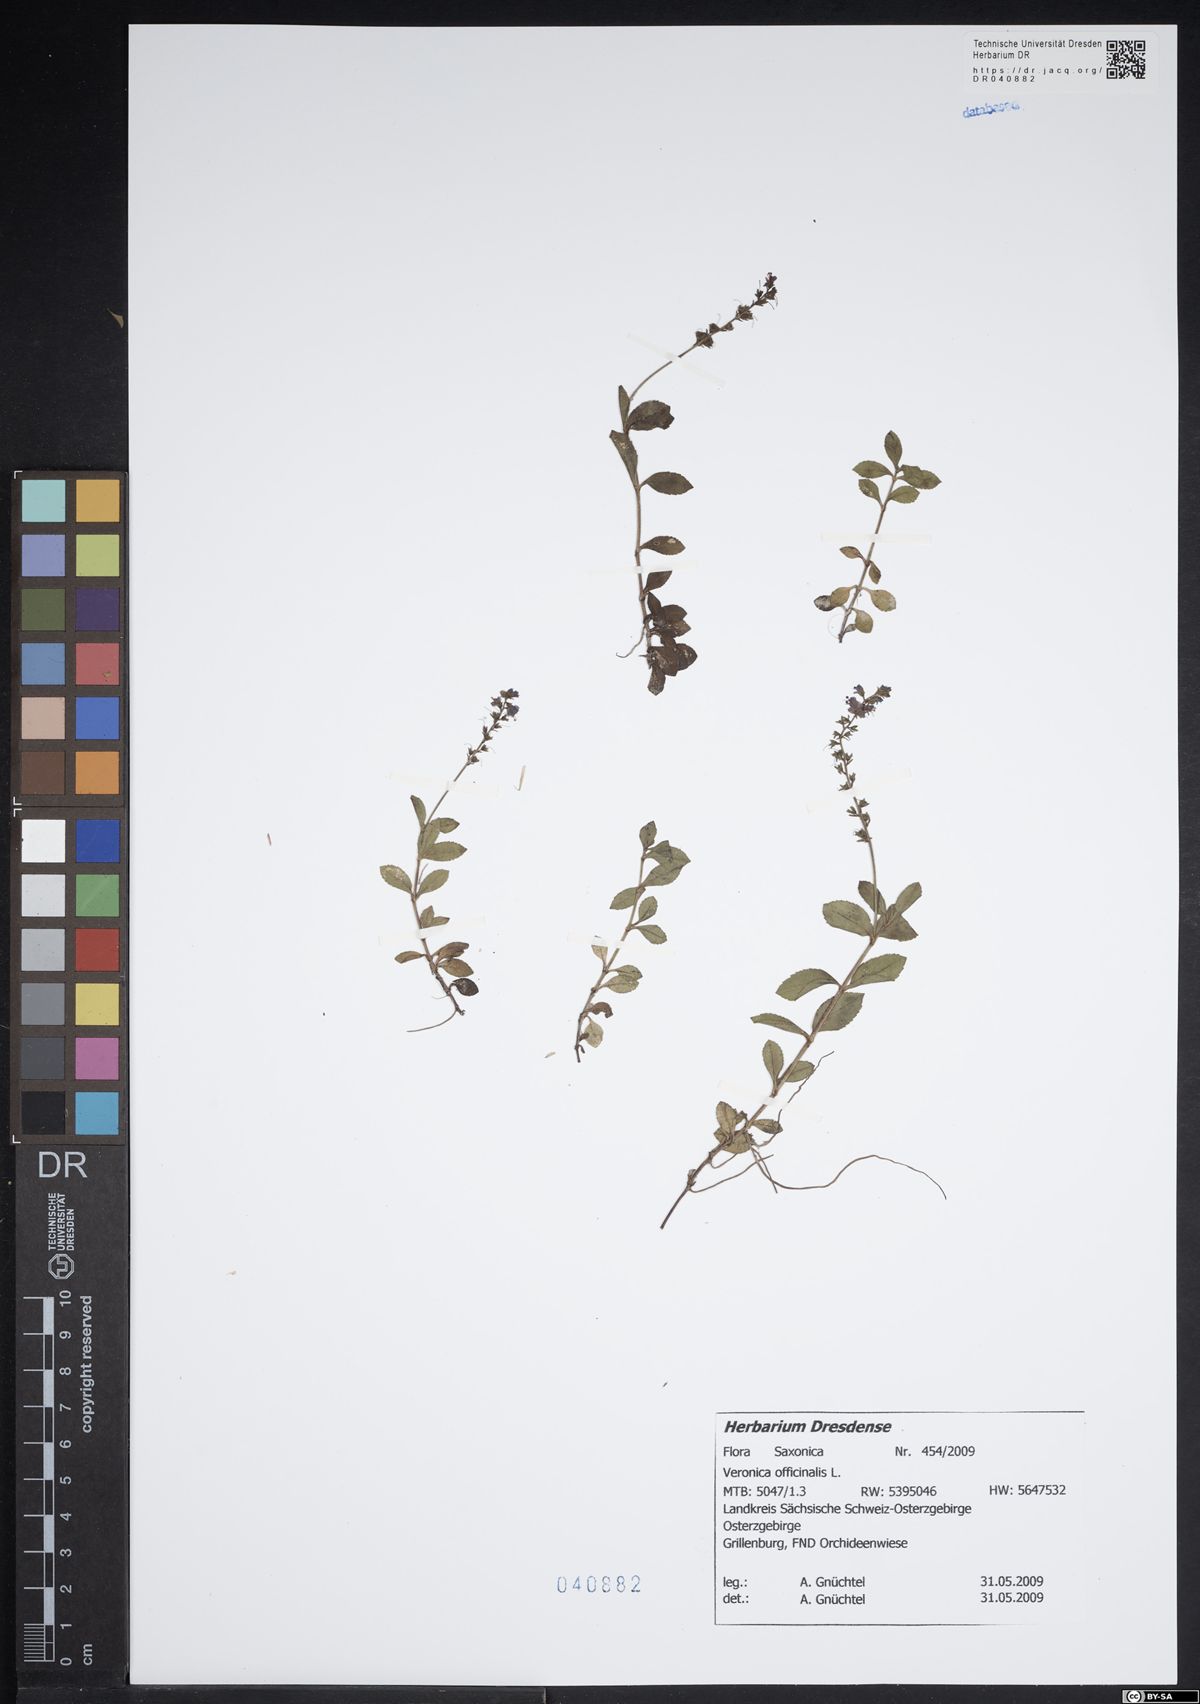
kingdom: Plantae
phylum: Tracheophyta
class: Magnoliopsida
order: Lamiales
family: Plantaginaceae
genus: Veronica
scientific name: Veronica officinalis
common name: Common speedwell
